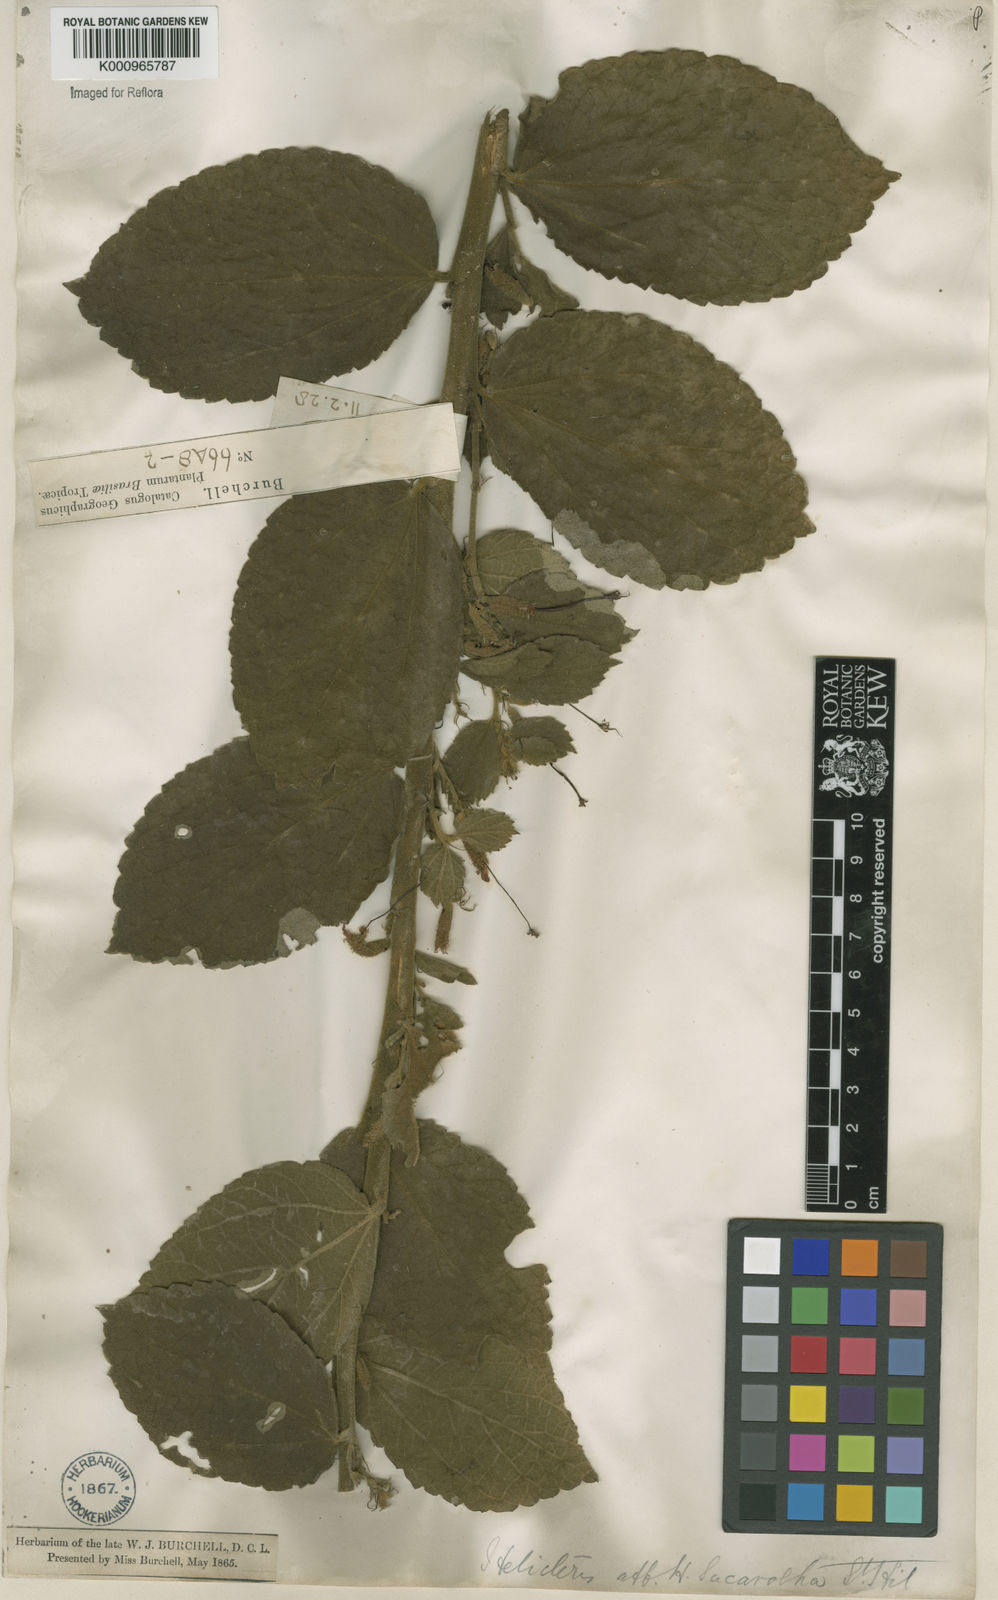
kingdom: Plantae
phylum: Tracheophyta
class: Magnoliopsida
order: Malvales
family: Malvaceae
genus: Helicteres
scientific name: Helicteres
